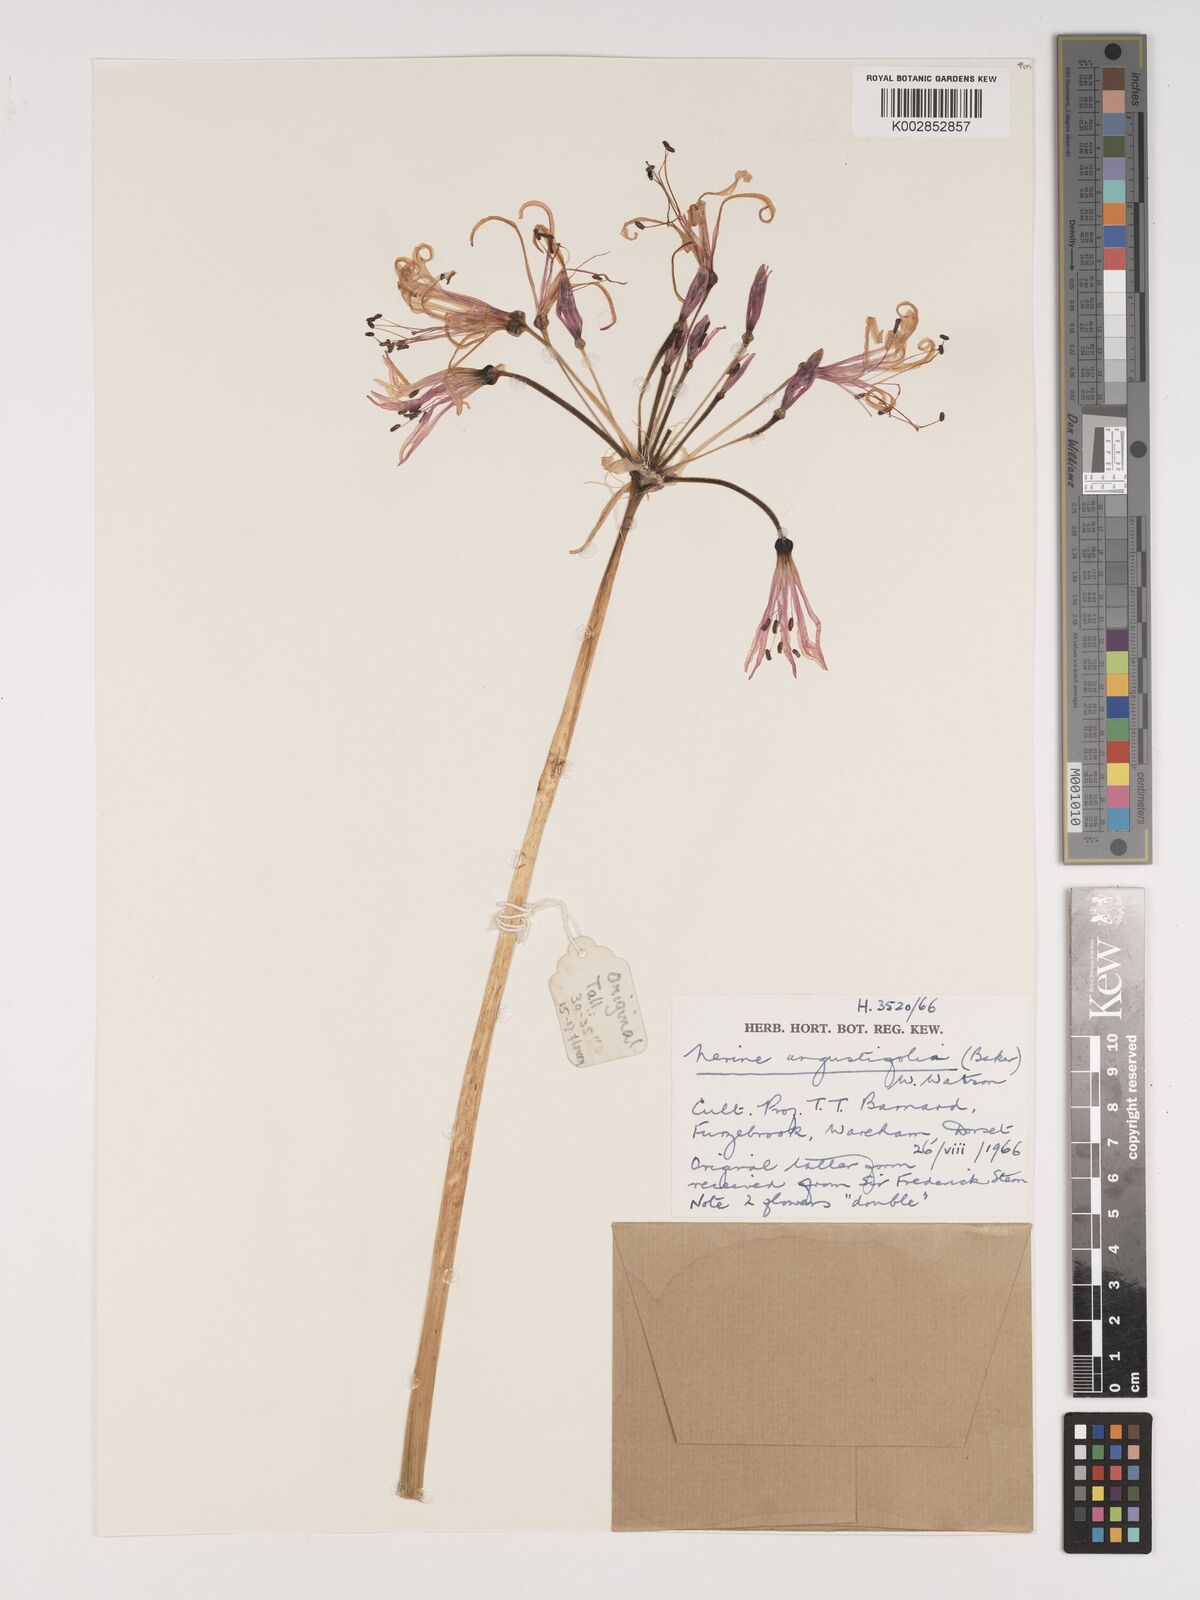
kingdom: Plantae
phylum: Tracheophyta
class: Liliopsida
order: Asparagales
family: Amaryllidaceae
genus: Nerine
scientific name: Nerine angustifolia
